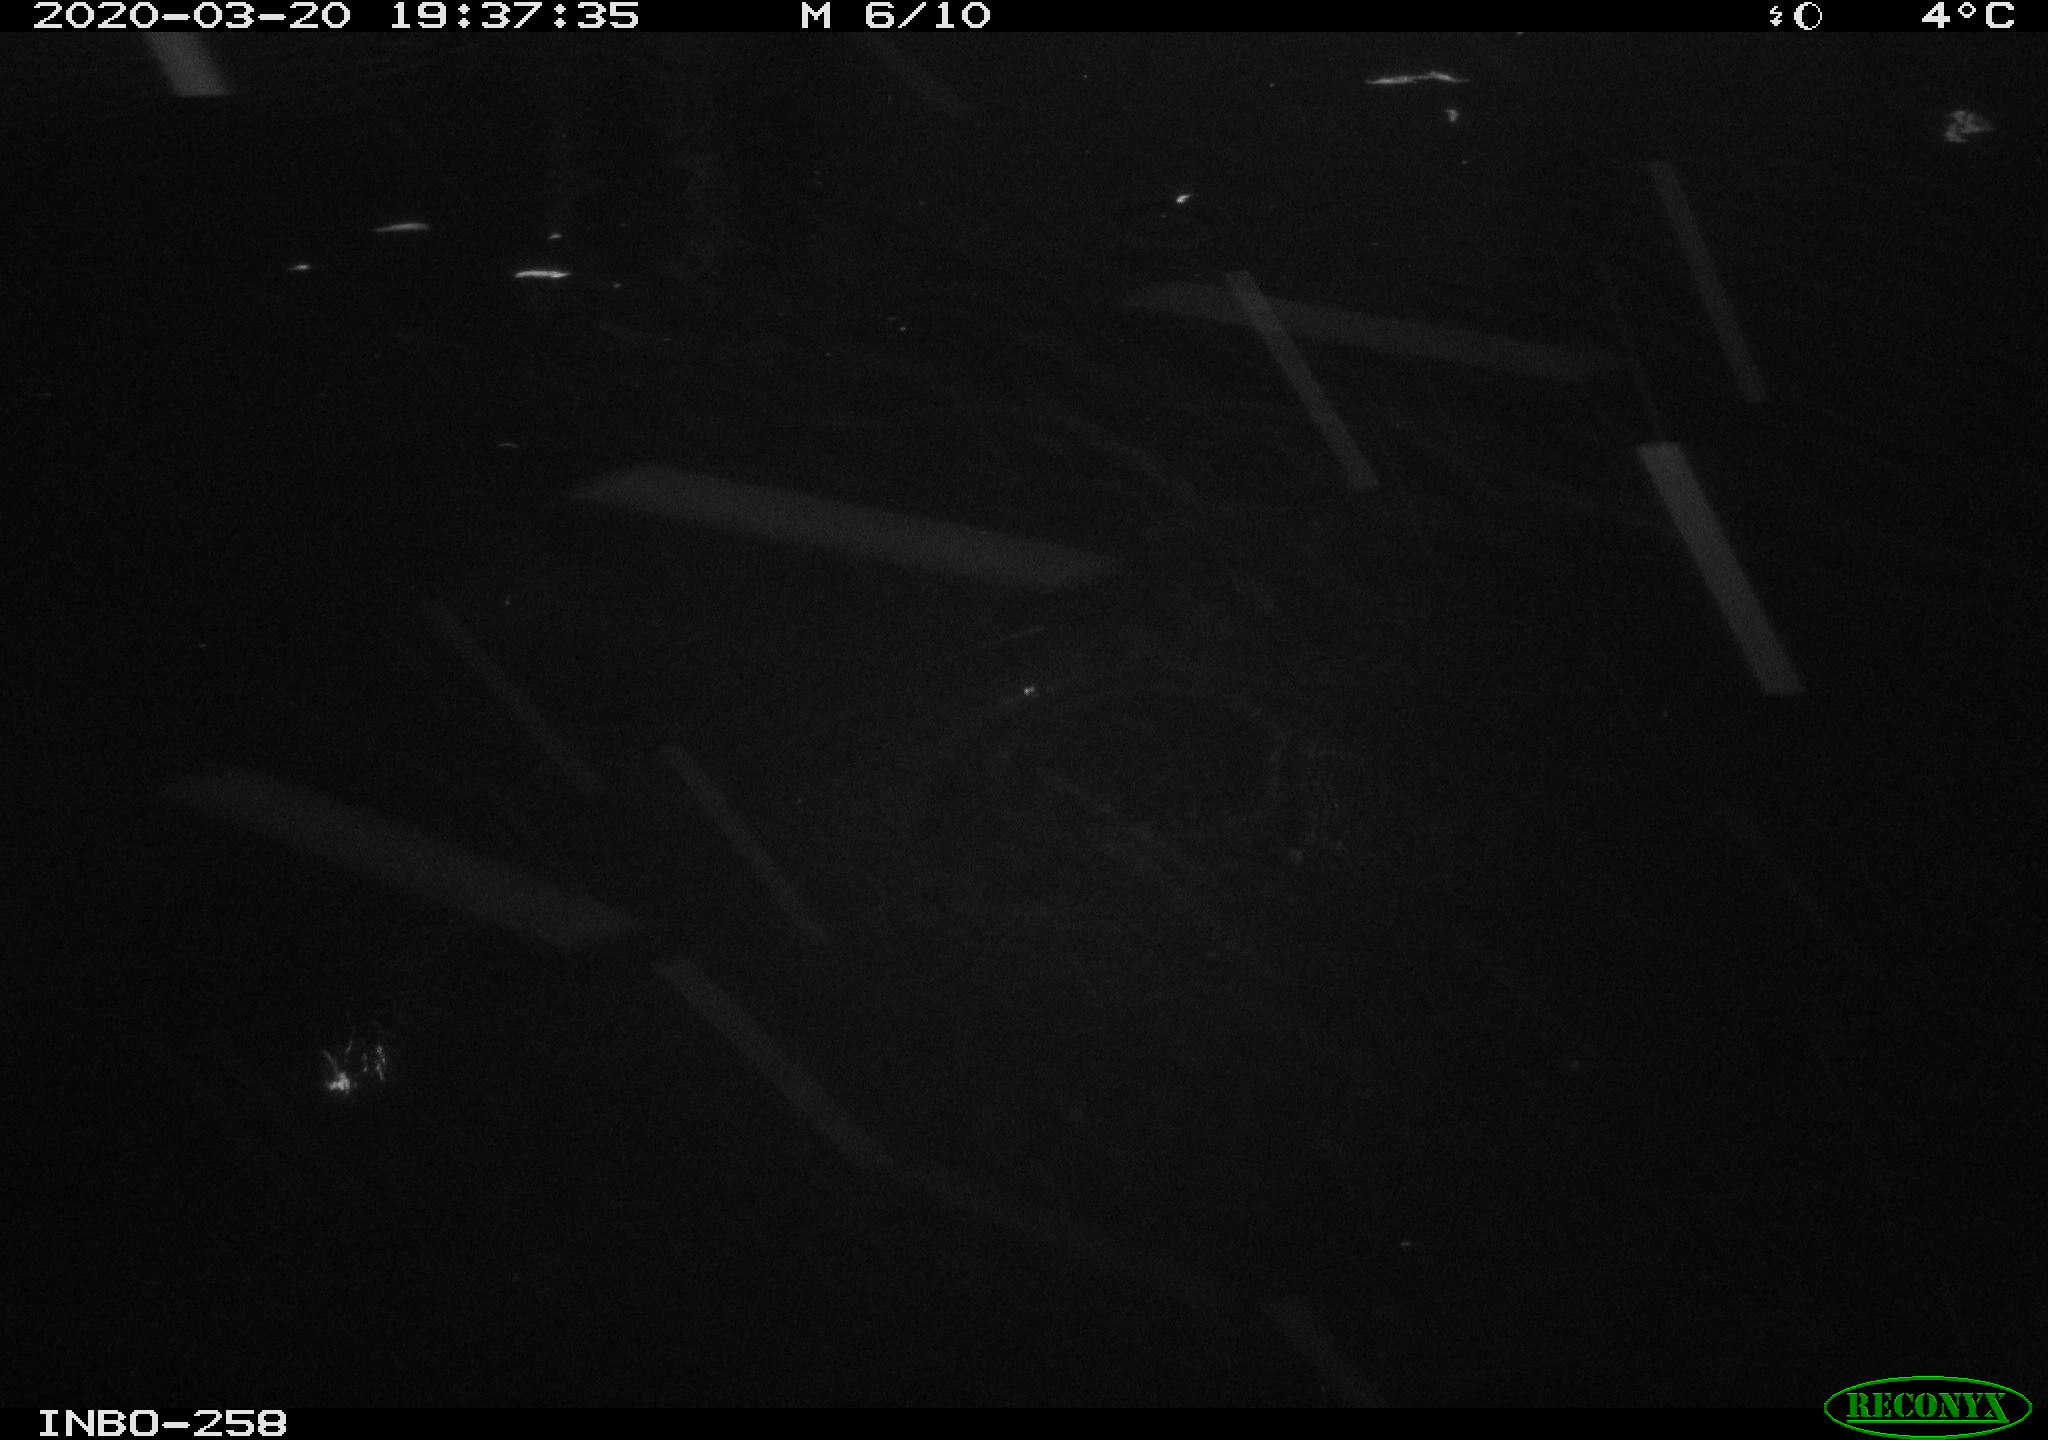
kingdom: Animalia
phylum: Chordata
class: Aves
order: Anseriformes
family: Anatidae
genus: Anas
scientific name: Anas platyrhynchos
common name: Mallard
